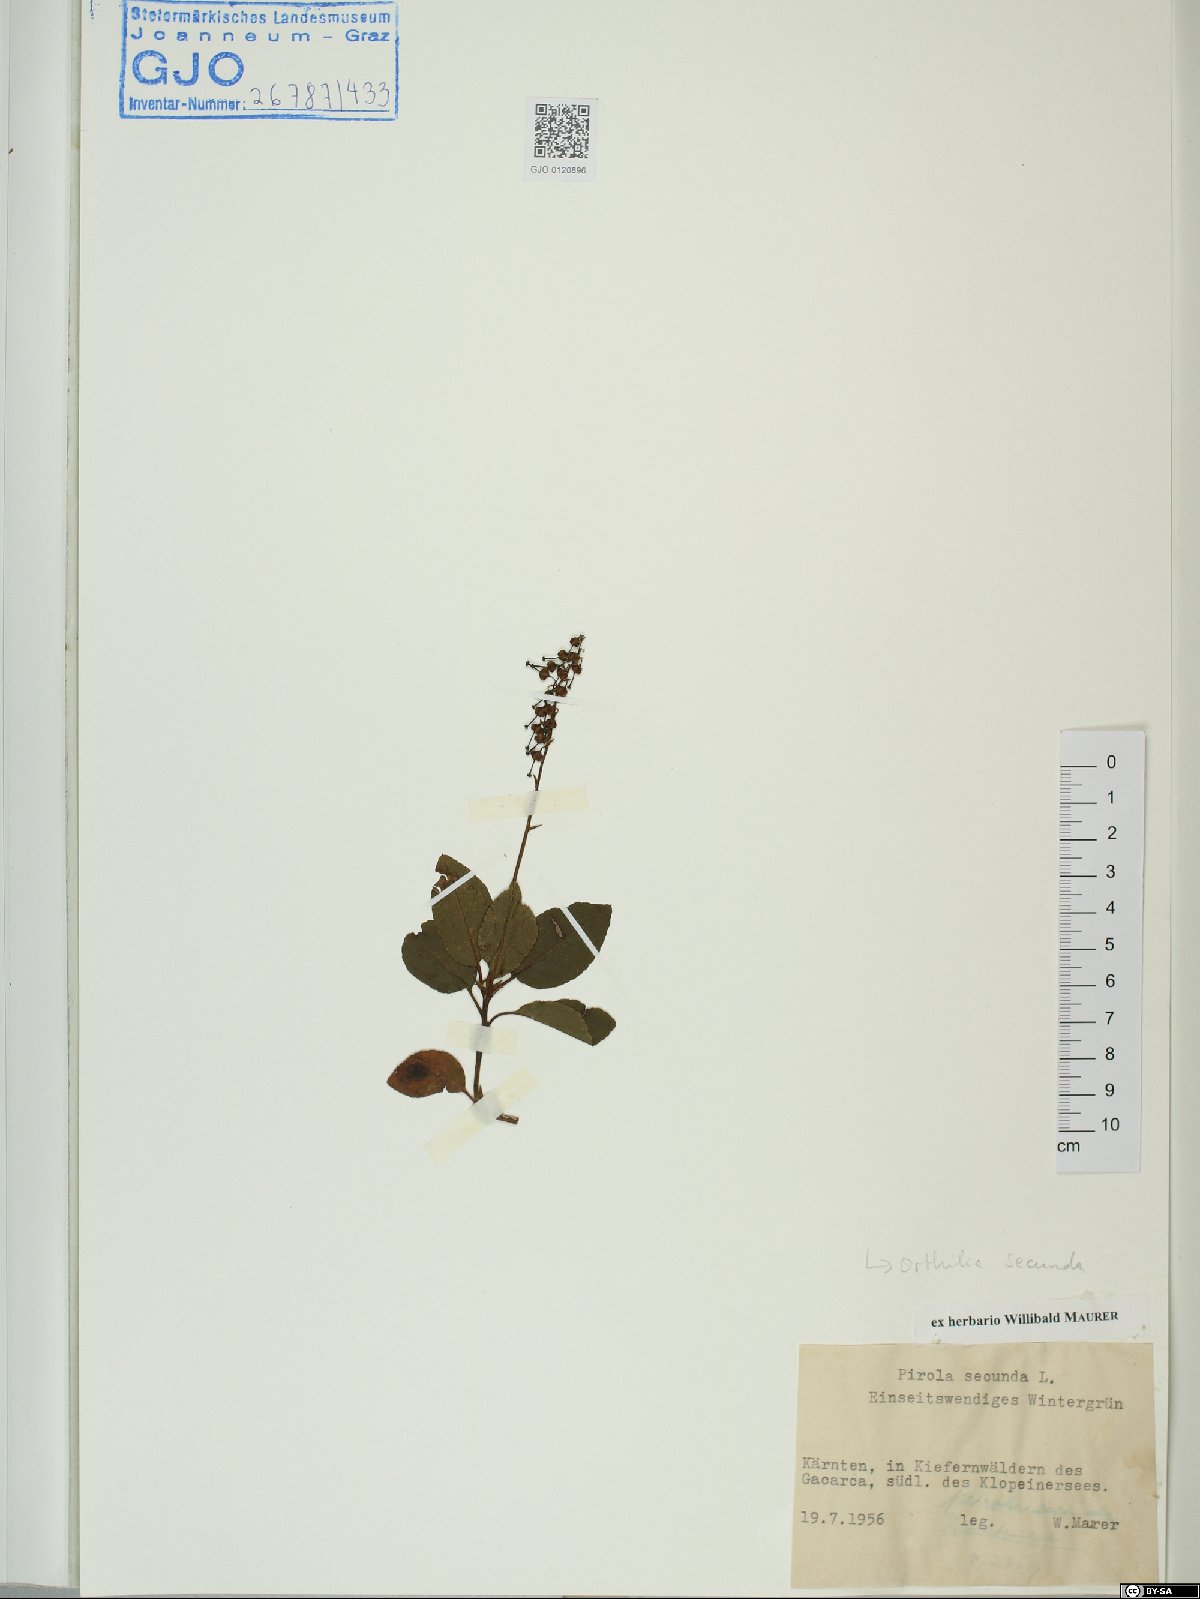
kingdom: Plantae
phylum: Tracheophyta
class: Magnoliopsida
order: Ericales
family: Ericaceae
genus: Orthilia
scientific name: Orthilia secunda
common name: One-sided orthilia
